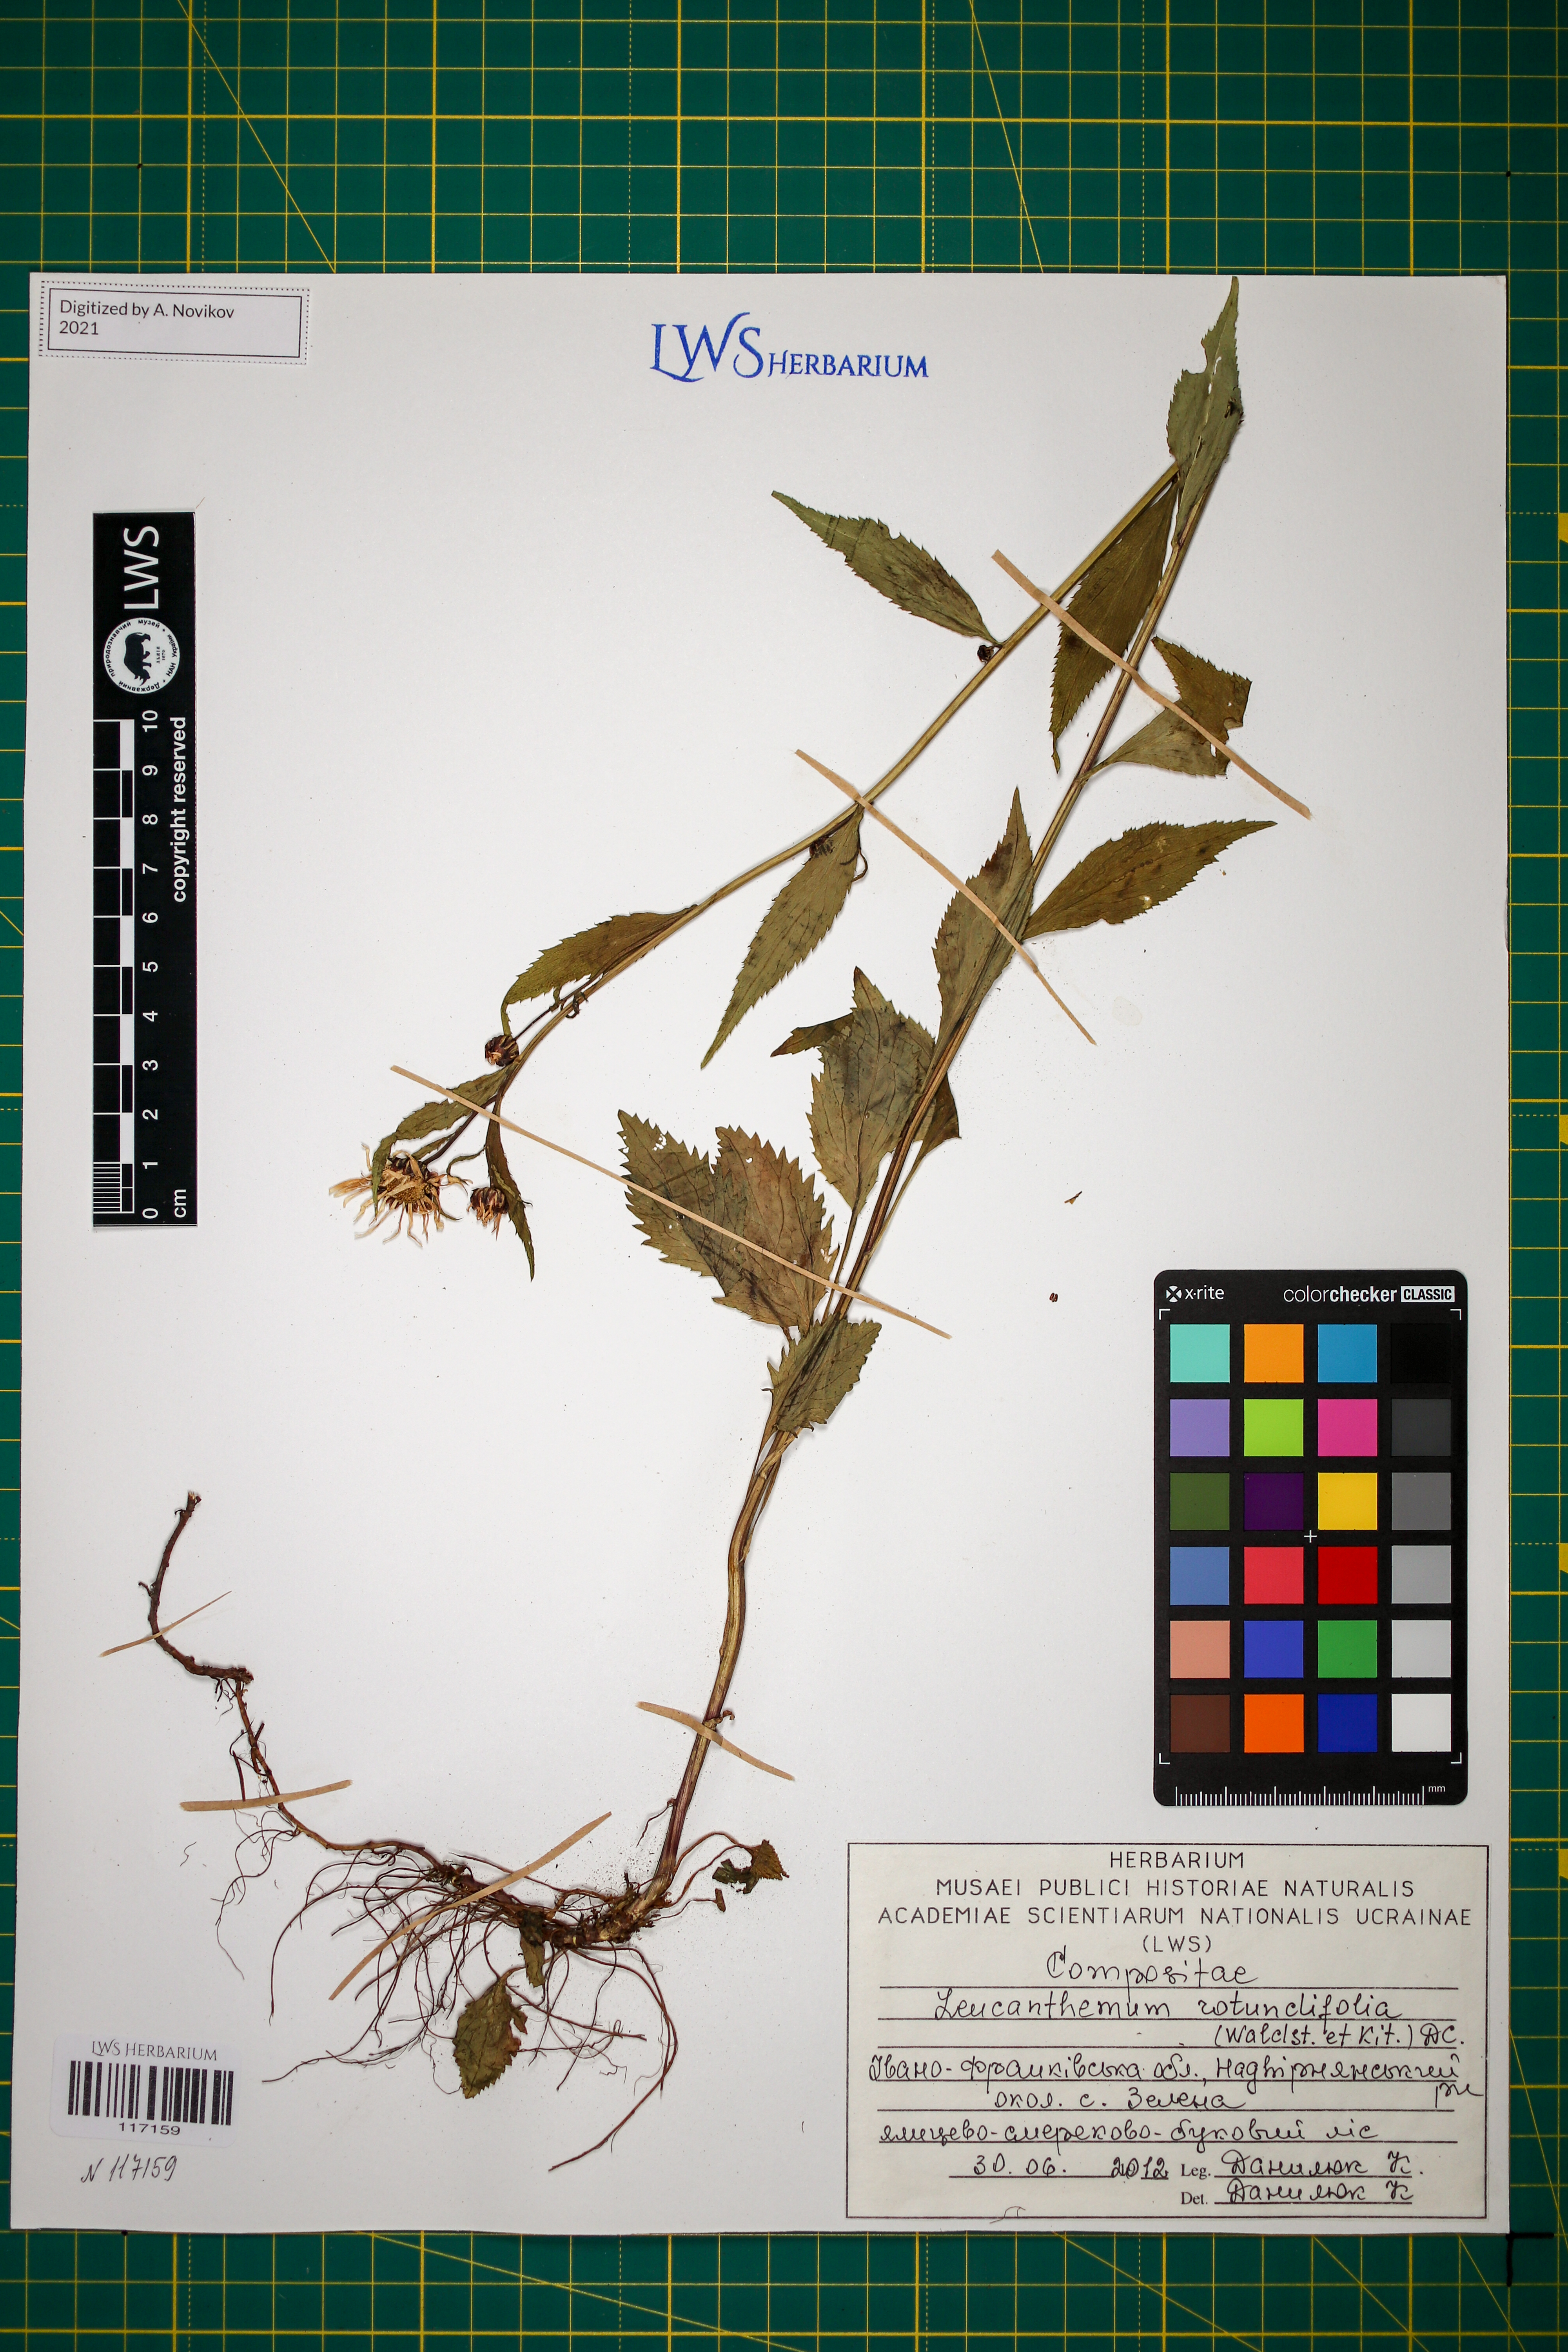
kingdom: Plantae
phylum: Tracheophyta
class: Magnoliopsida
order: Asterales
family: Asteraceae
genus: Leucanthemum
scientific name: Leucanthemum rotundifolium
